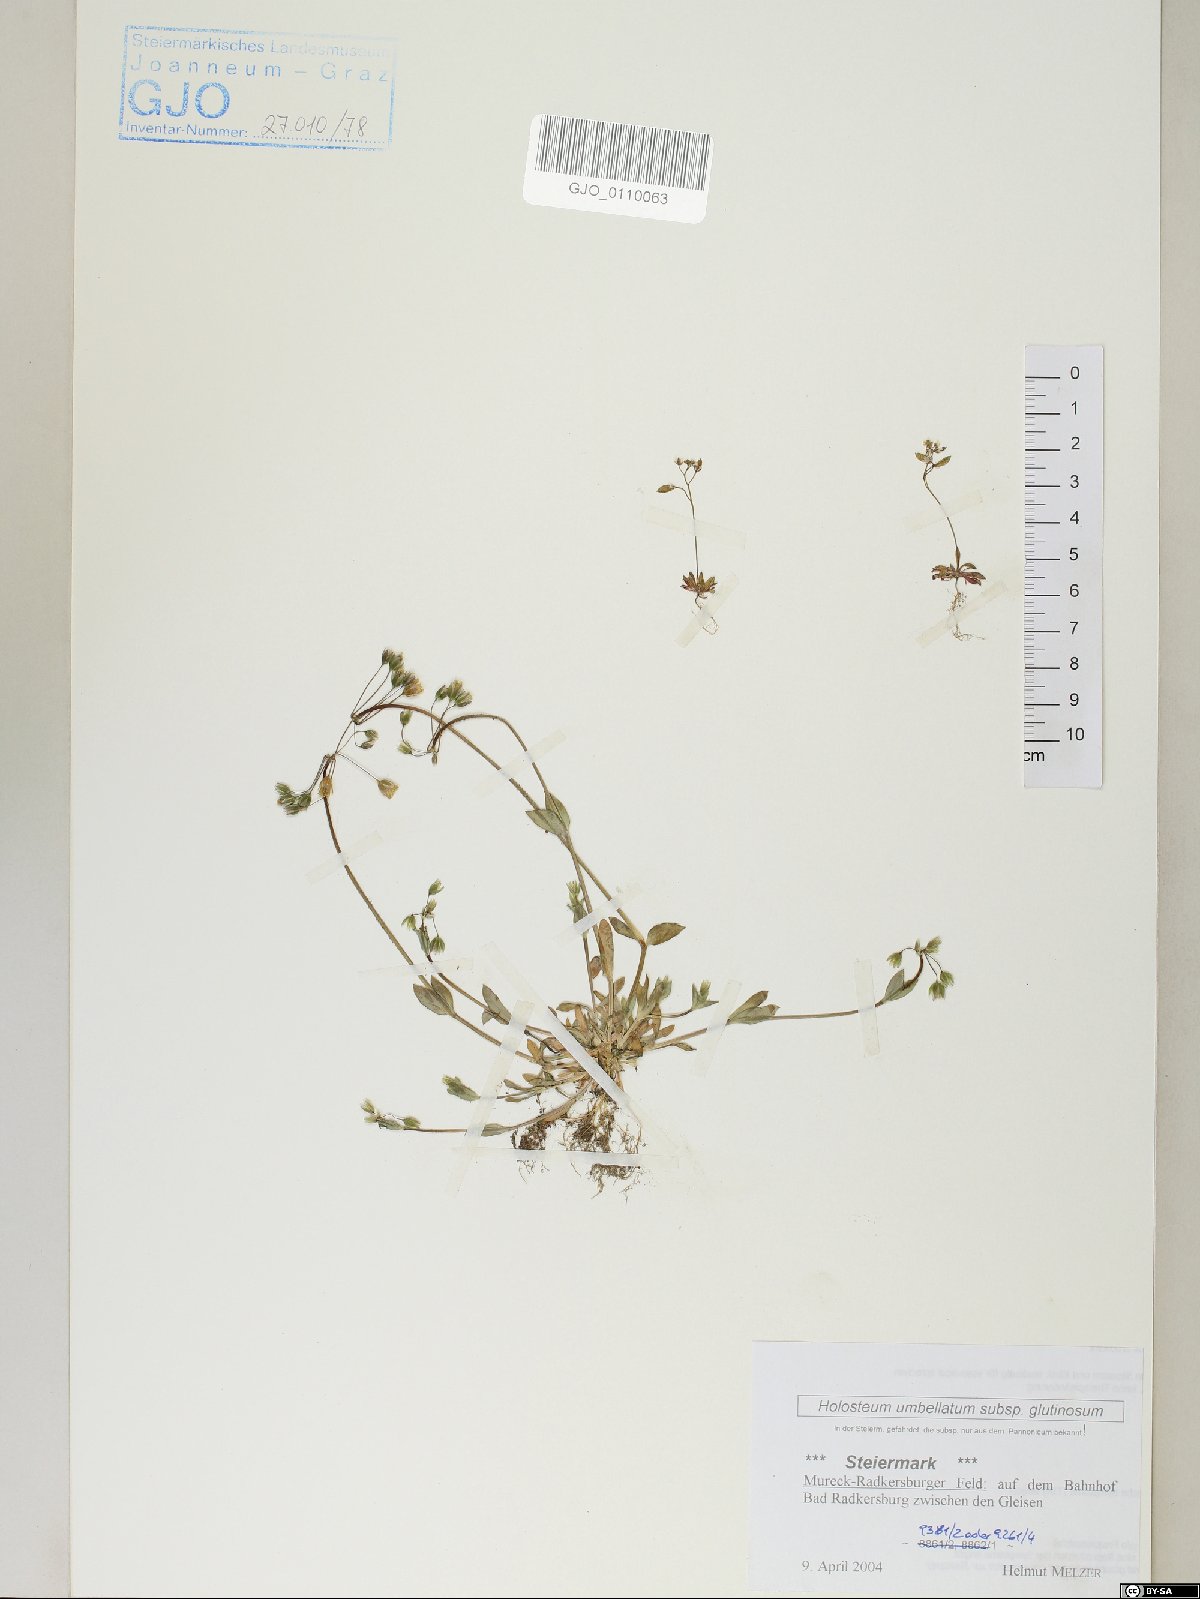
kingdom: Plantae
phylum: Tracheophyta
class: Magnoliopsida
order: Caryophyllales
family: Caryophyllaceae
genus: Holosteum
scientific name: Holosteum glutinosum
